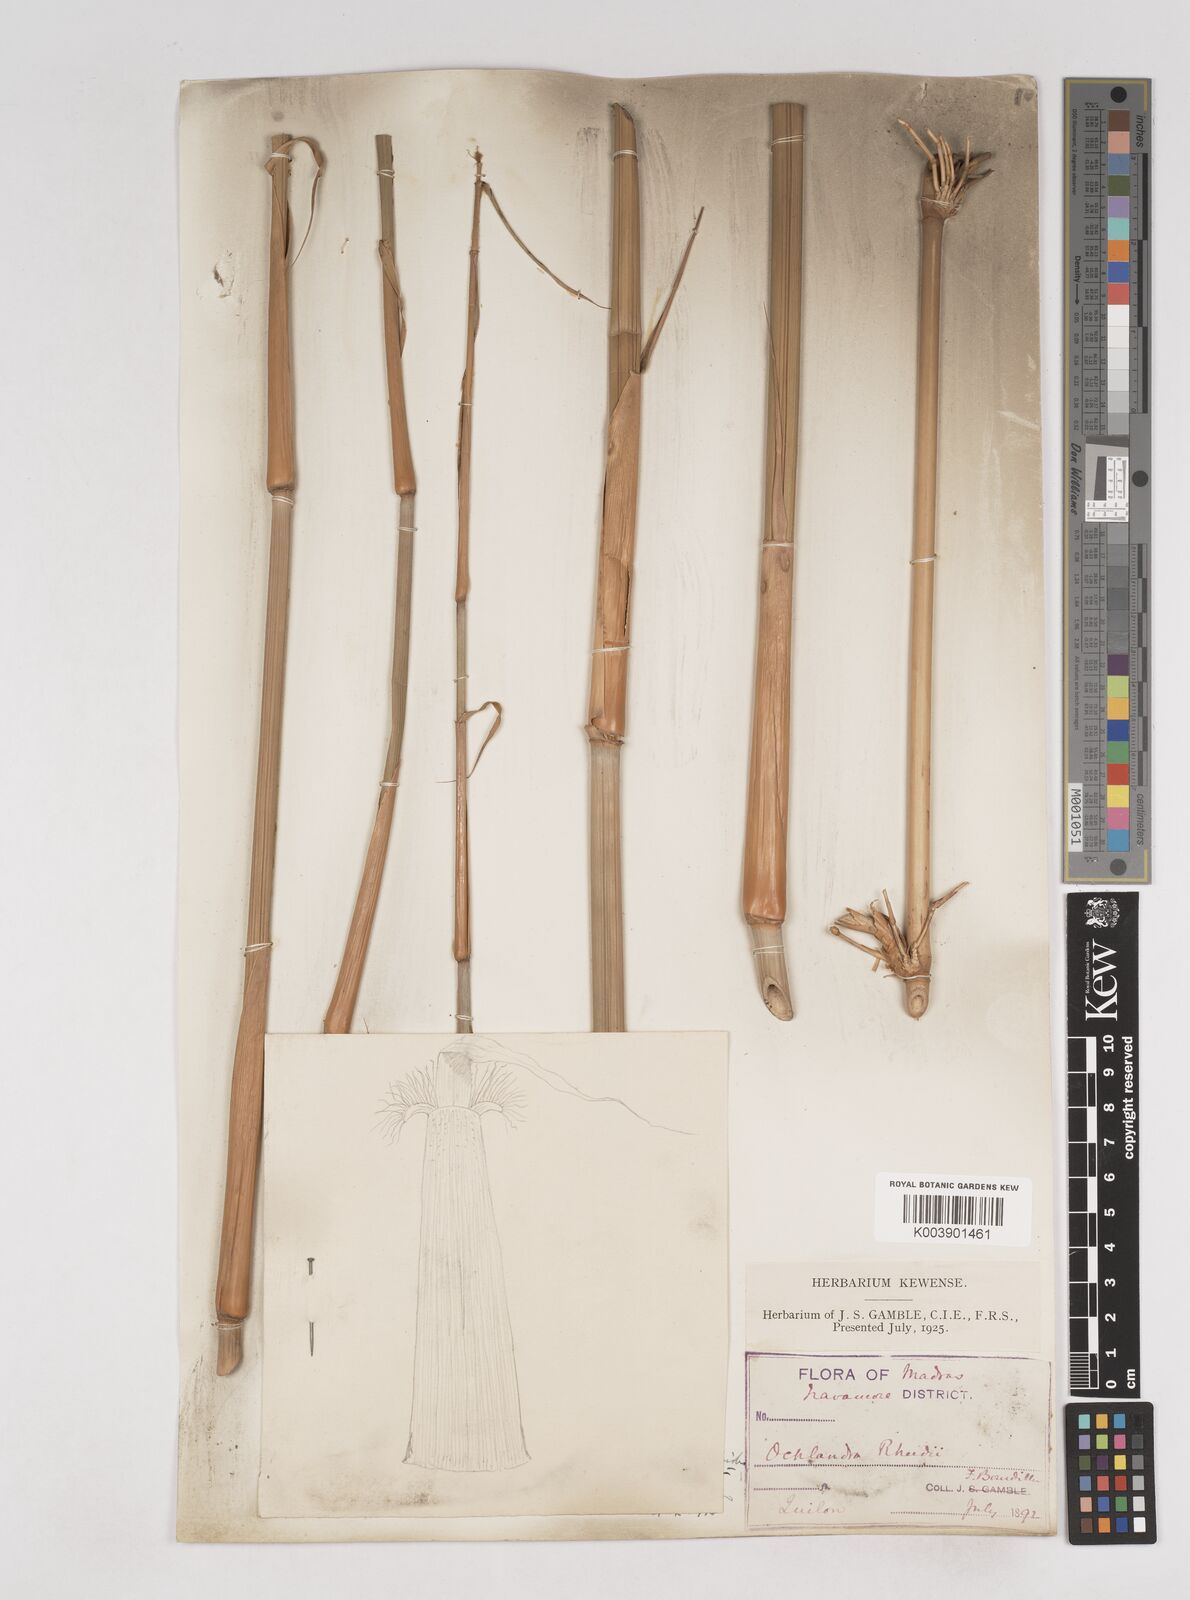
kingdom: Plantae
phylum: Tracheophyta
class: Liliopsida
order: Poales
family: Poaceae
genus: Ochlandra
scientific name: Ochlandra scriptoria
